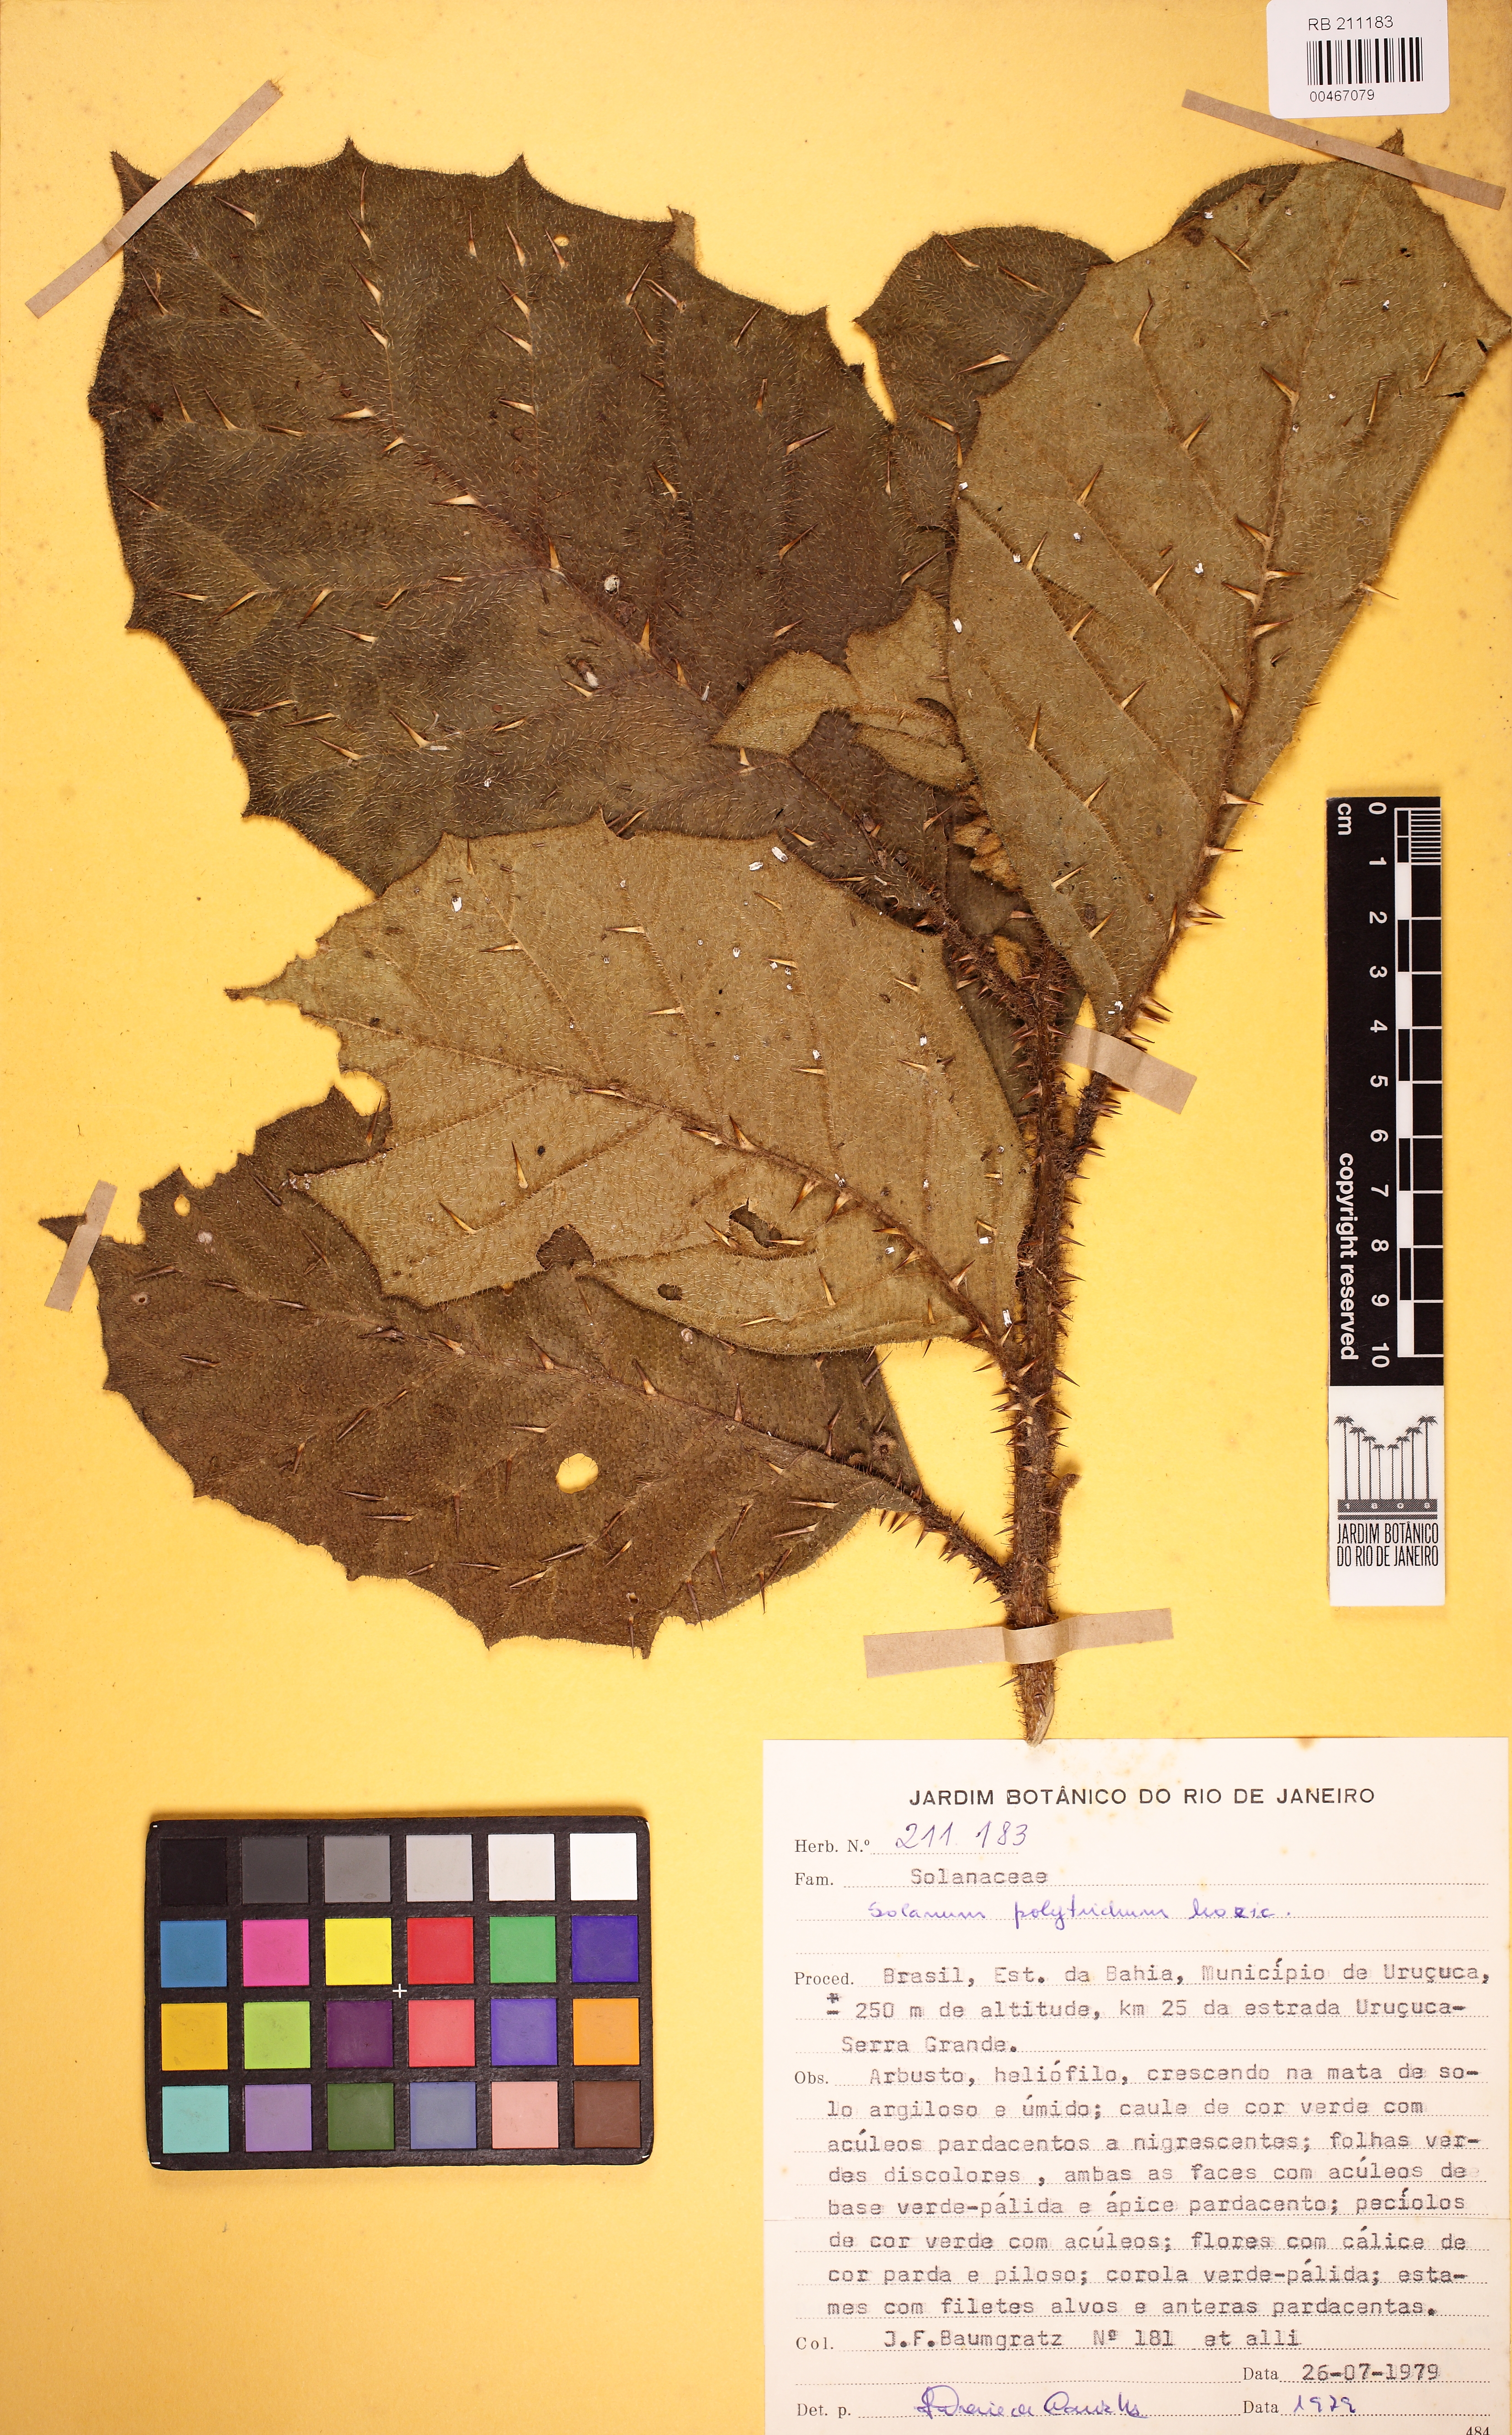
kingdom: Plantae
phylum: Tracheophyta
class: Magnoliopsida
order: Solanales
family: Solanaceae
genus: Solanum
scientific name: Solanum polytrichum
